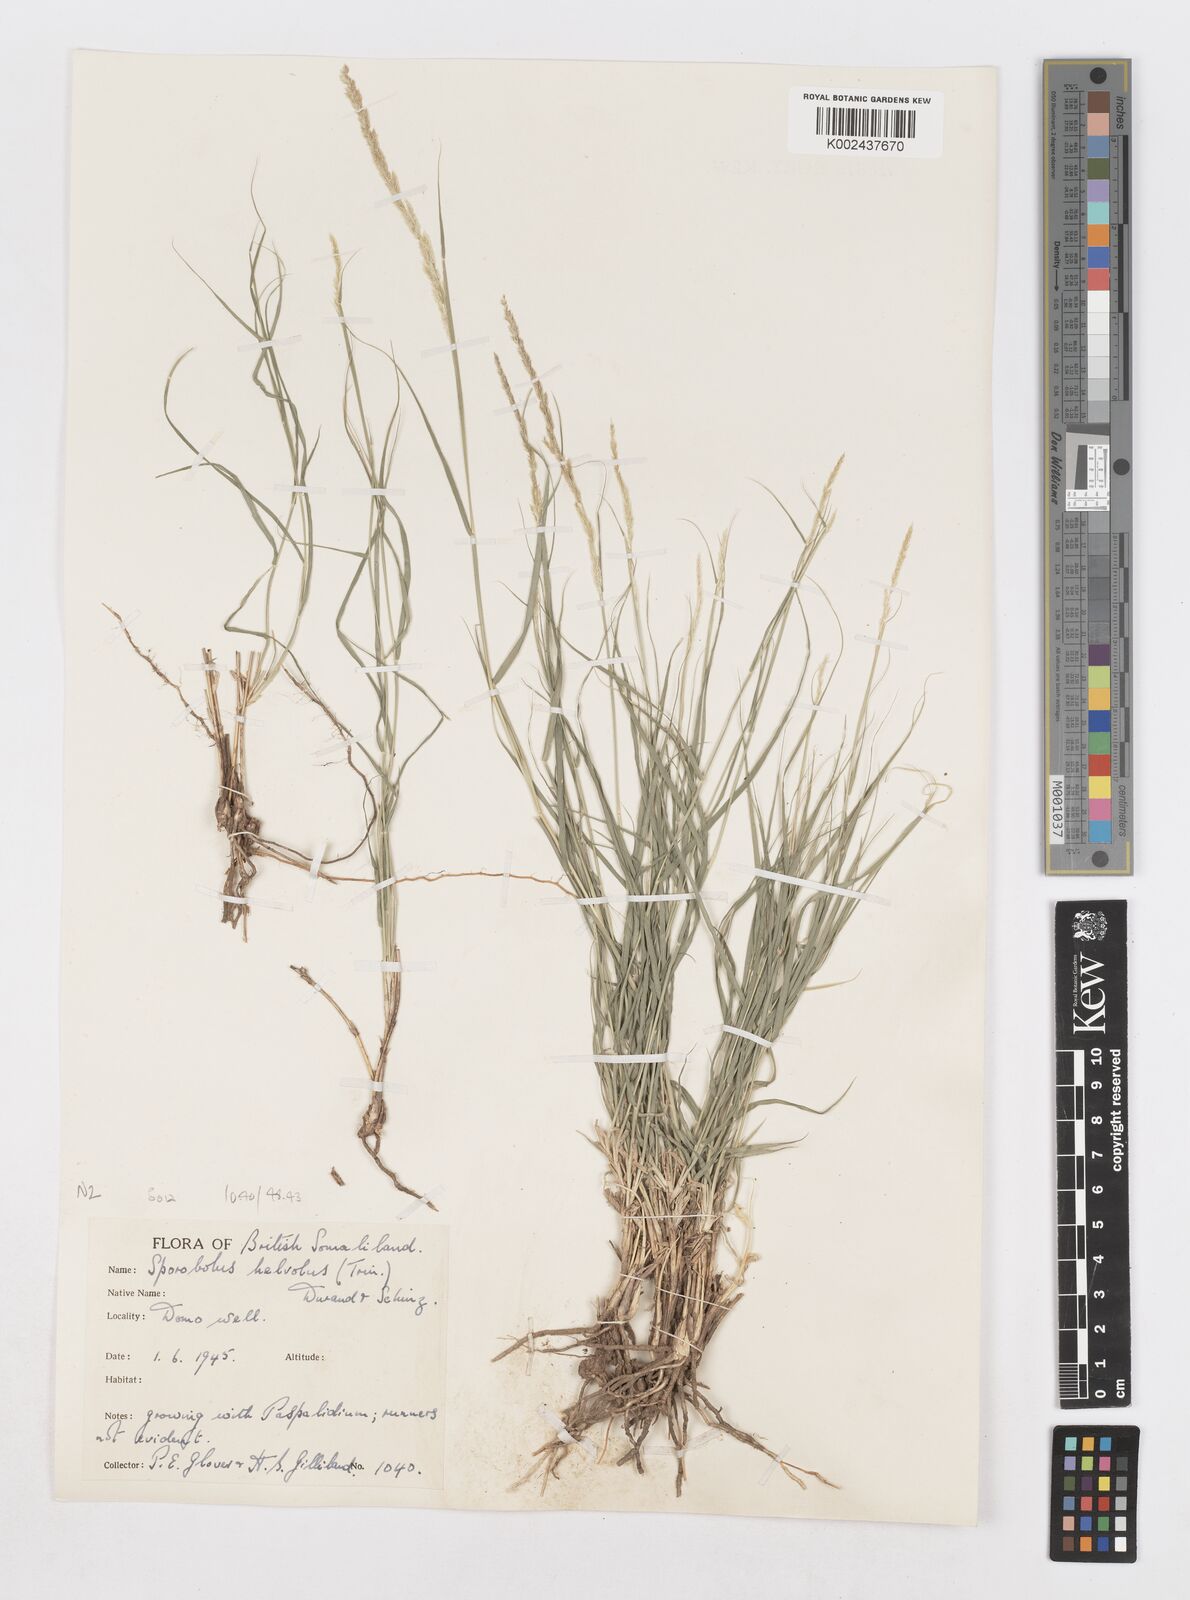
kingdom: Plantae
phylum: Tracheophyta
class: Liliopsida
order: Poales
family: Poaceae
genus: Sporobolus
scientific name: Sporobolus helvolus
